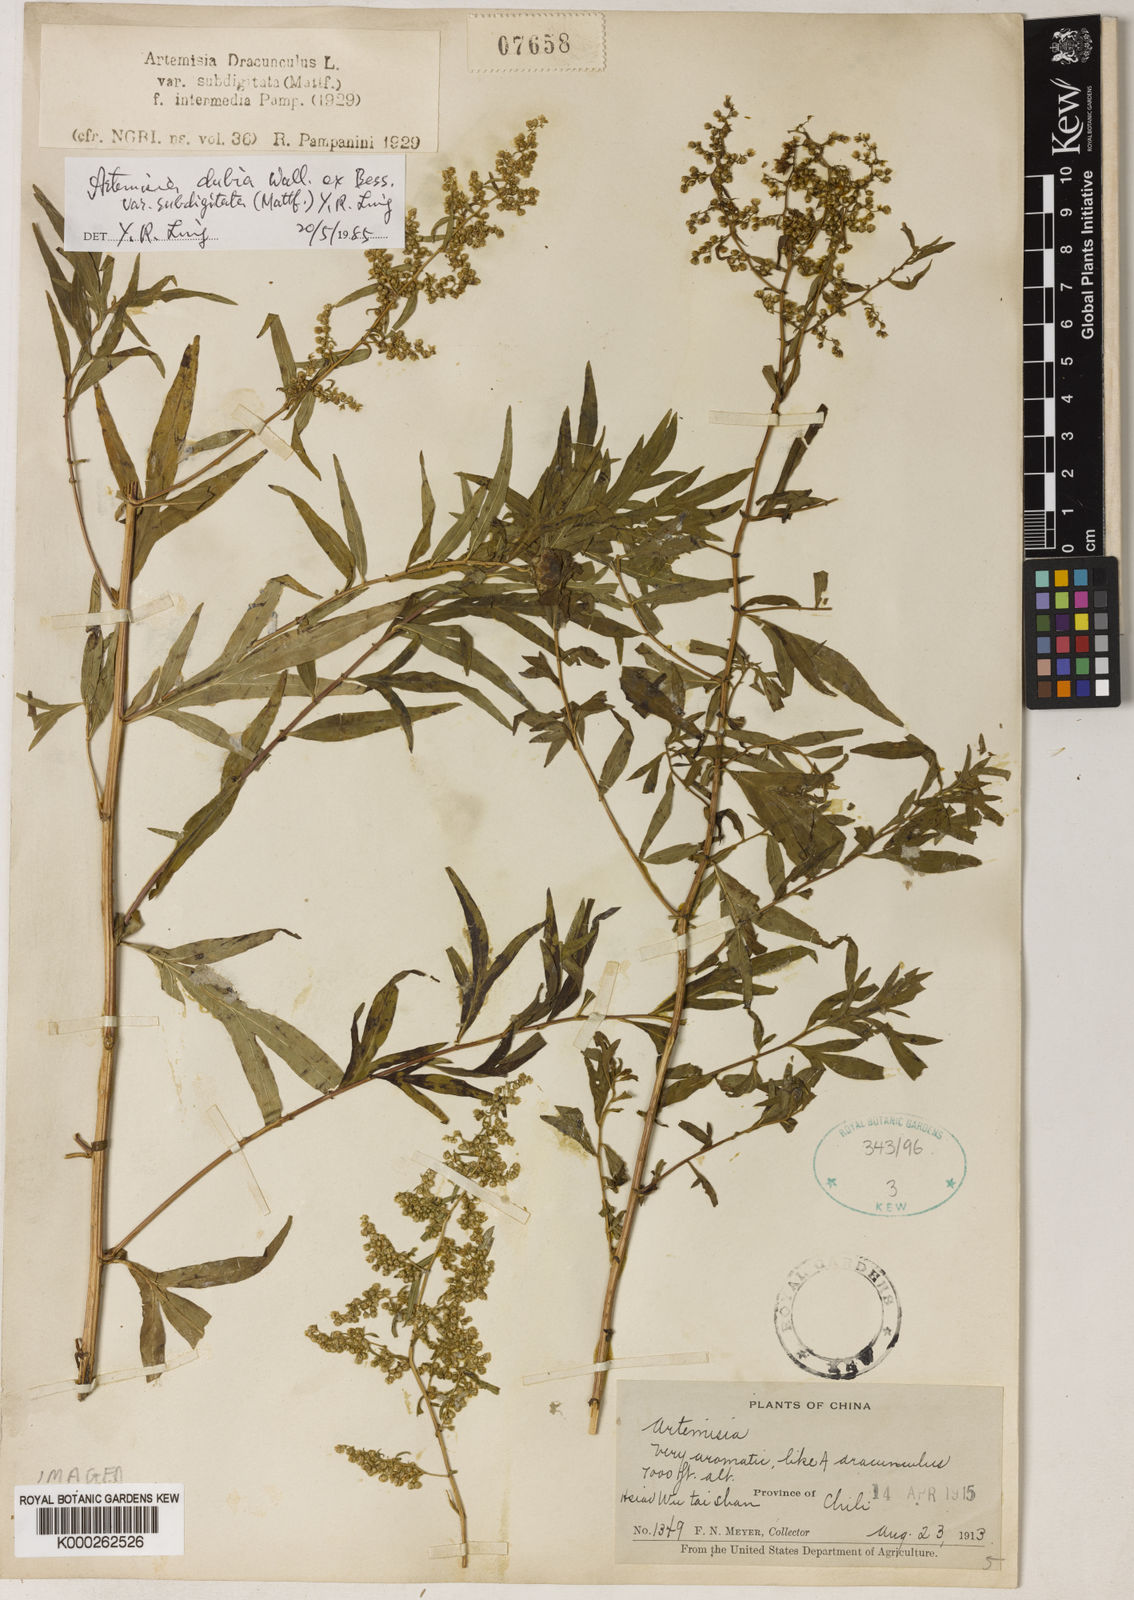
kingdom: Plantae
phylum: Tracheophyta
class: Magnoliopsida
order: Asterales
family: Asteraceae
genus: Artemisia
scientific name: Artemisia dubia
